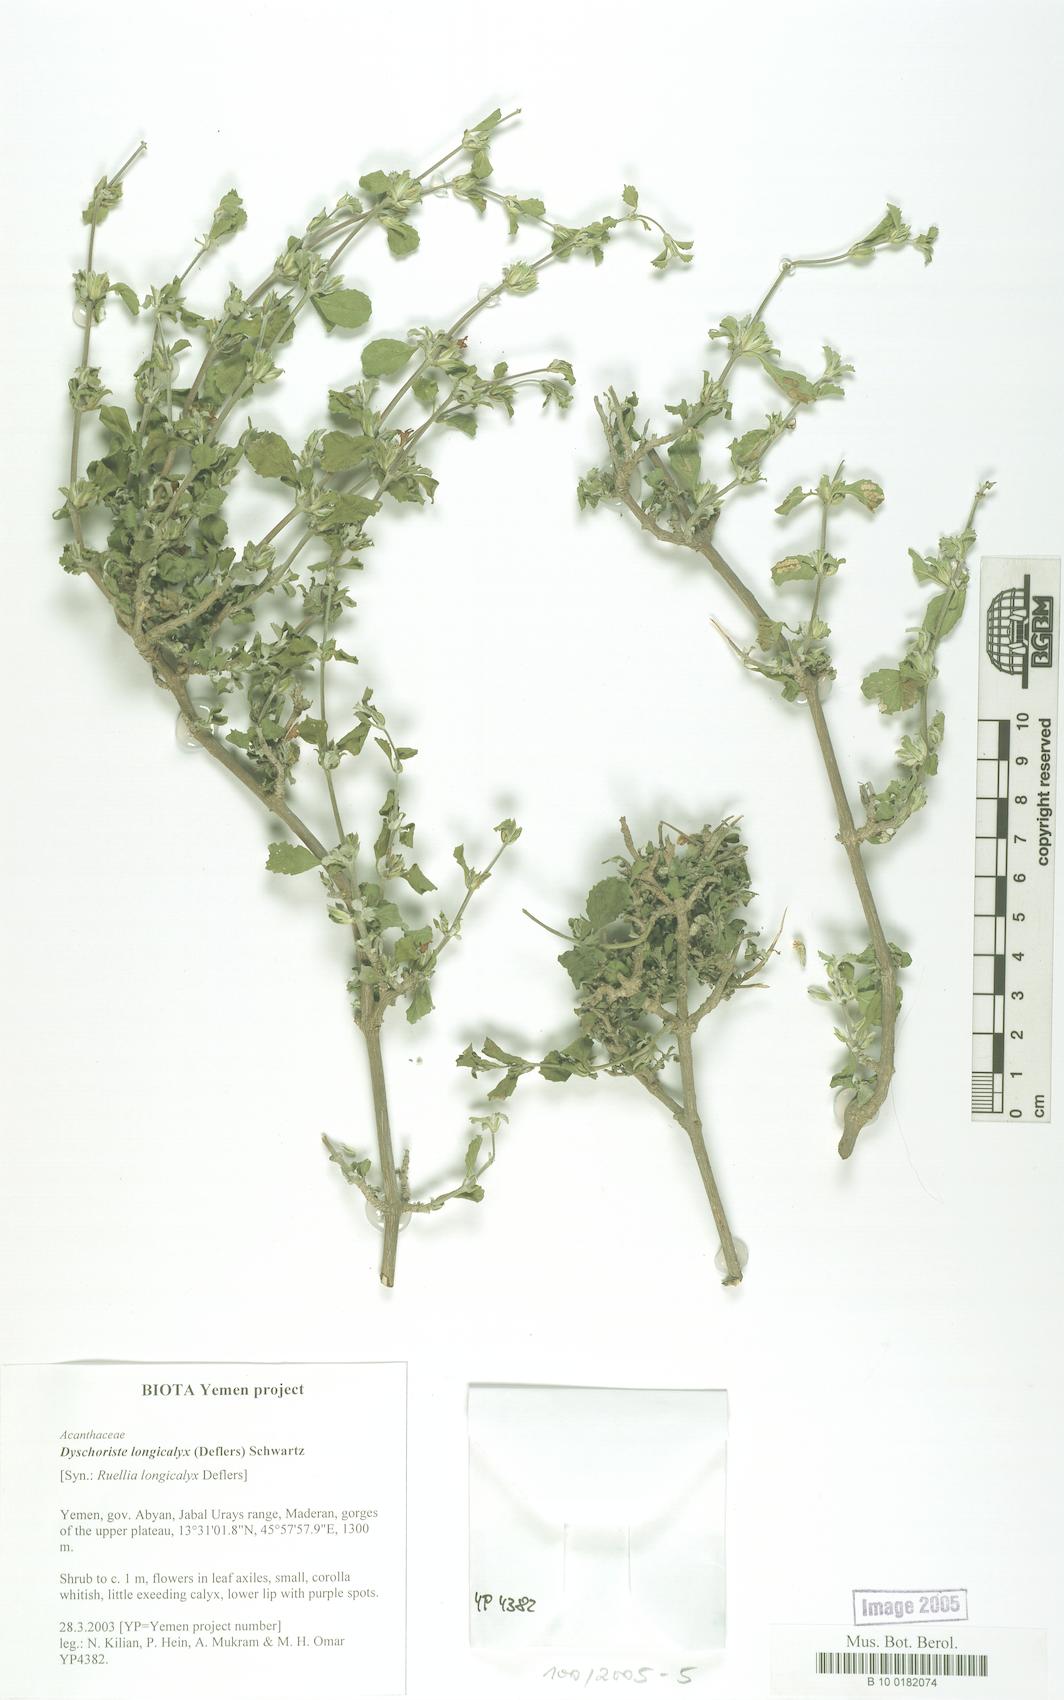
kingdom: Plantae
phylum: Tracheophyta
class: Magnoliopsida
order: Lamiales
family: Acanthaceae
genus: Duosperma
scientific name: Duosperma longicalyx
